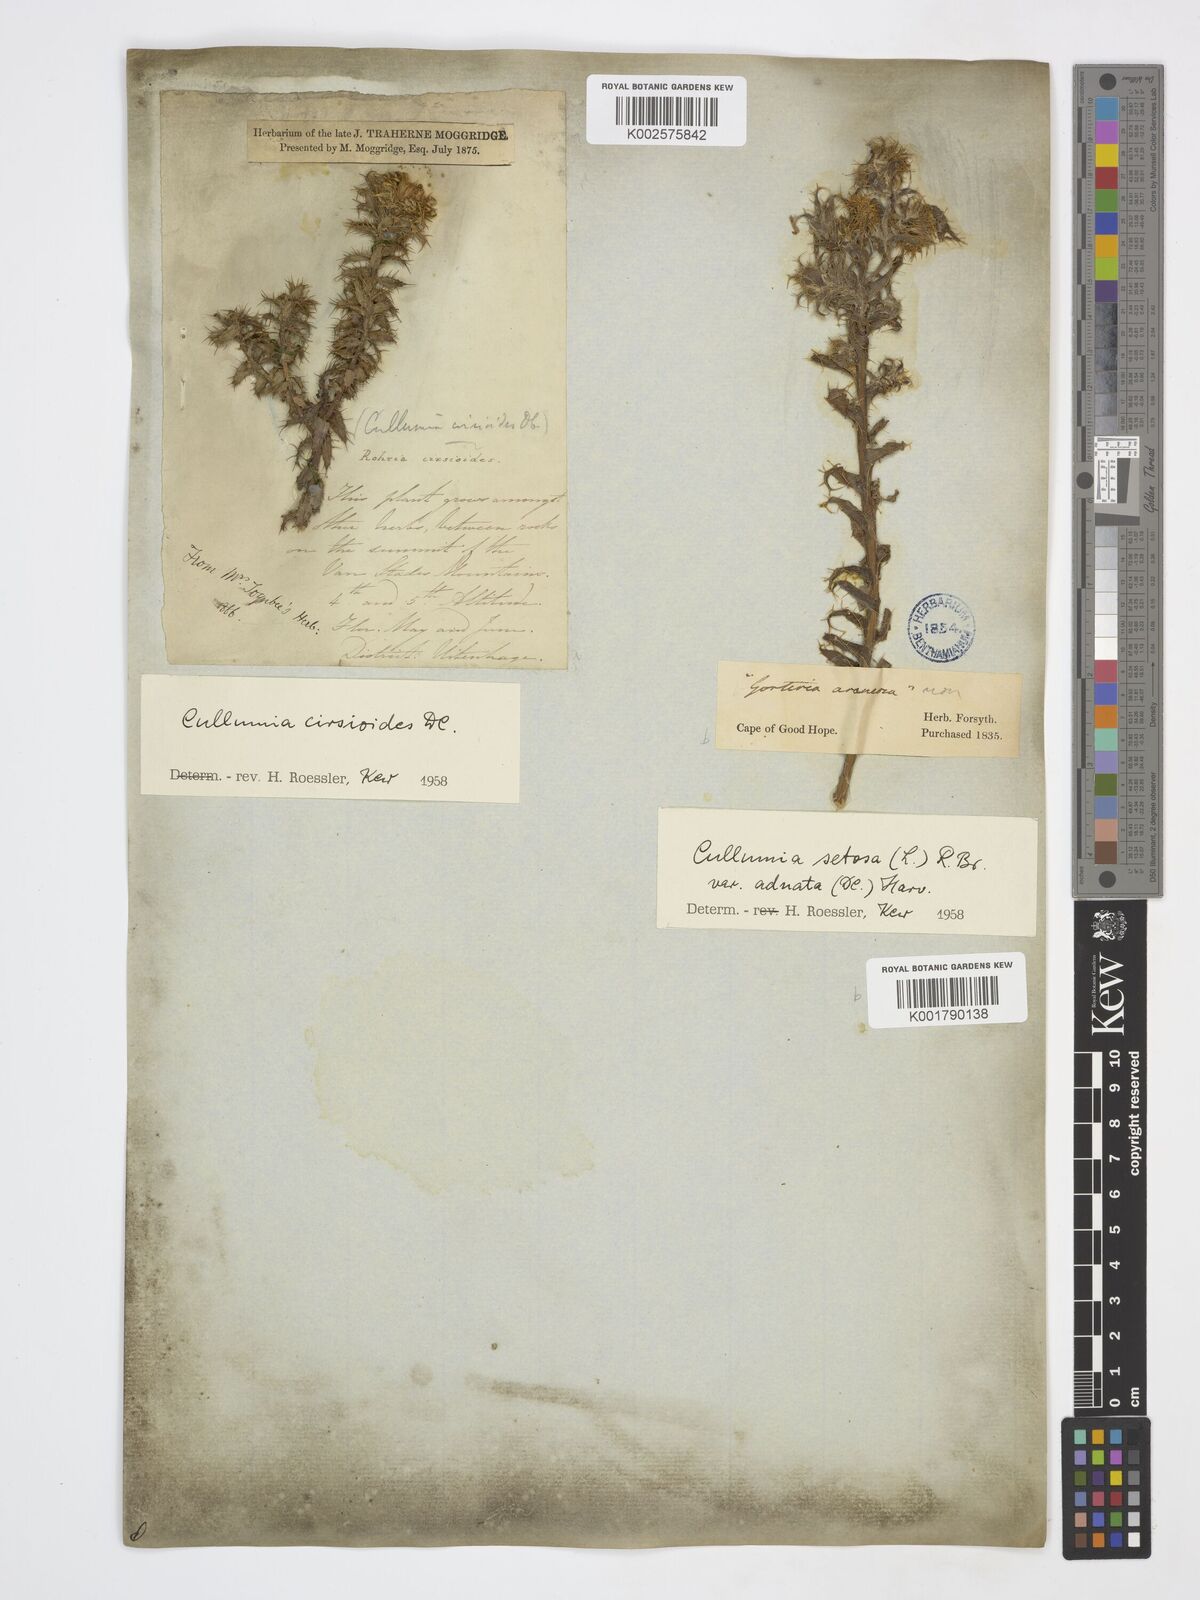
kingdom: Plantae
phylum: Tracheophyta
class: Magnoliopsida
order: Asterales
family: Asteraceae
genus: Cullumia
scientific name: Cullumia setosa
